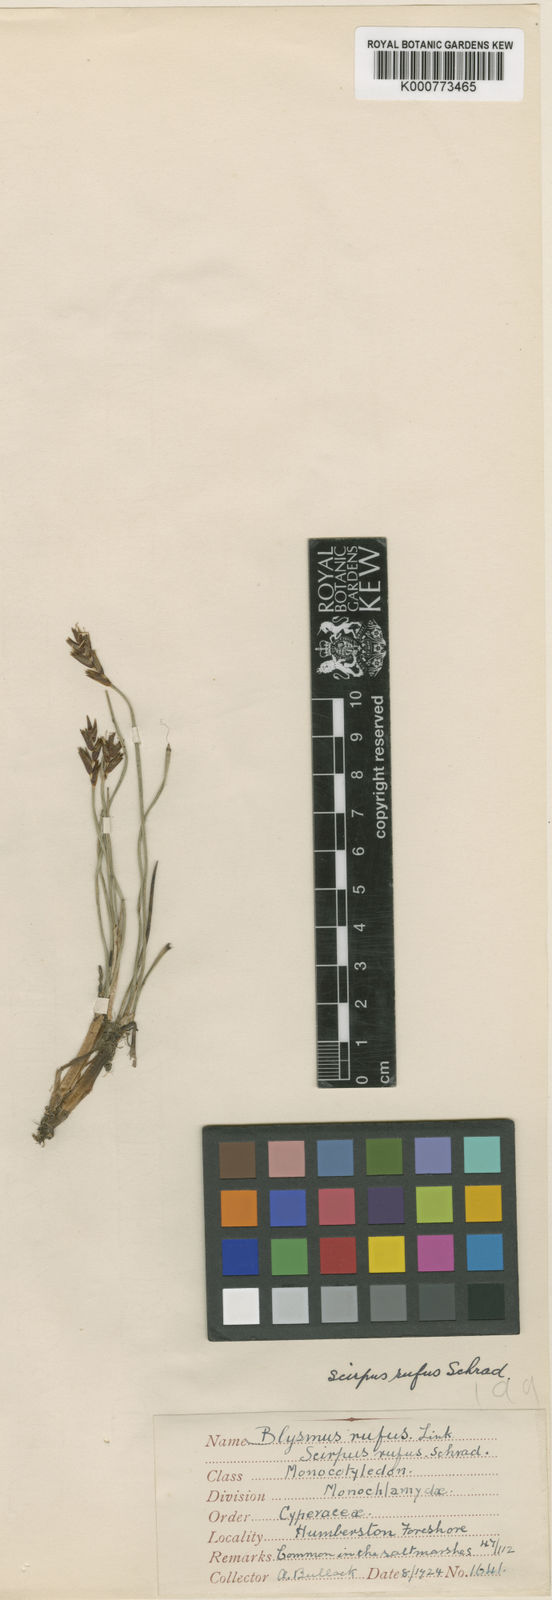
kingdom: Plantae
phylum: Tracheophyta
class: Liliopsida
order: Poales
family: Cyperaceae
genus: Blysmus
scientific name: Blysmus compressus
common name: Flat-sedge
